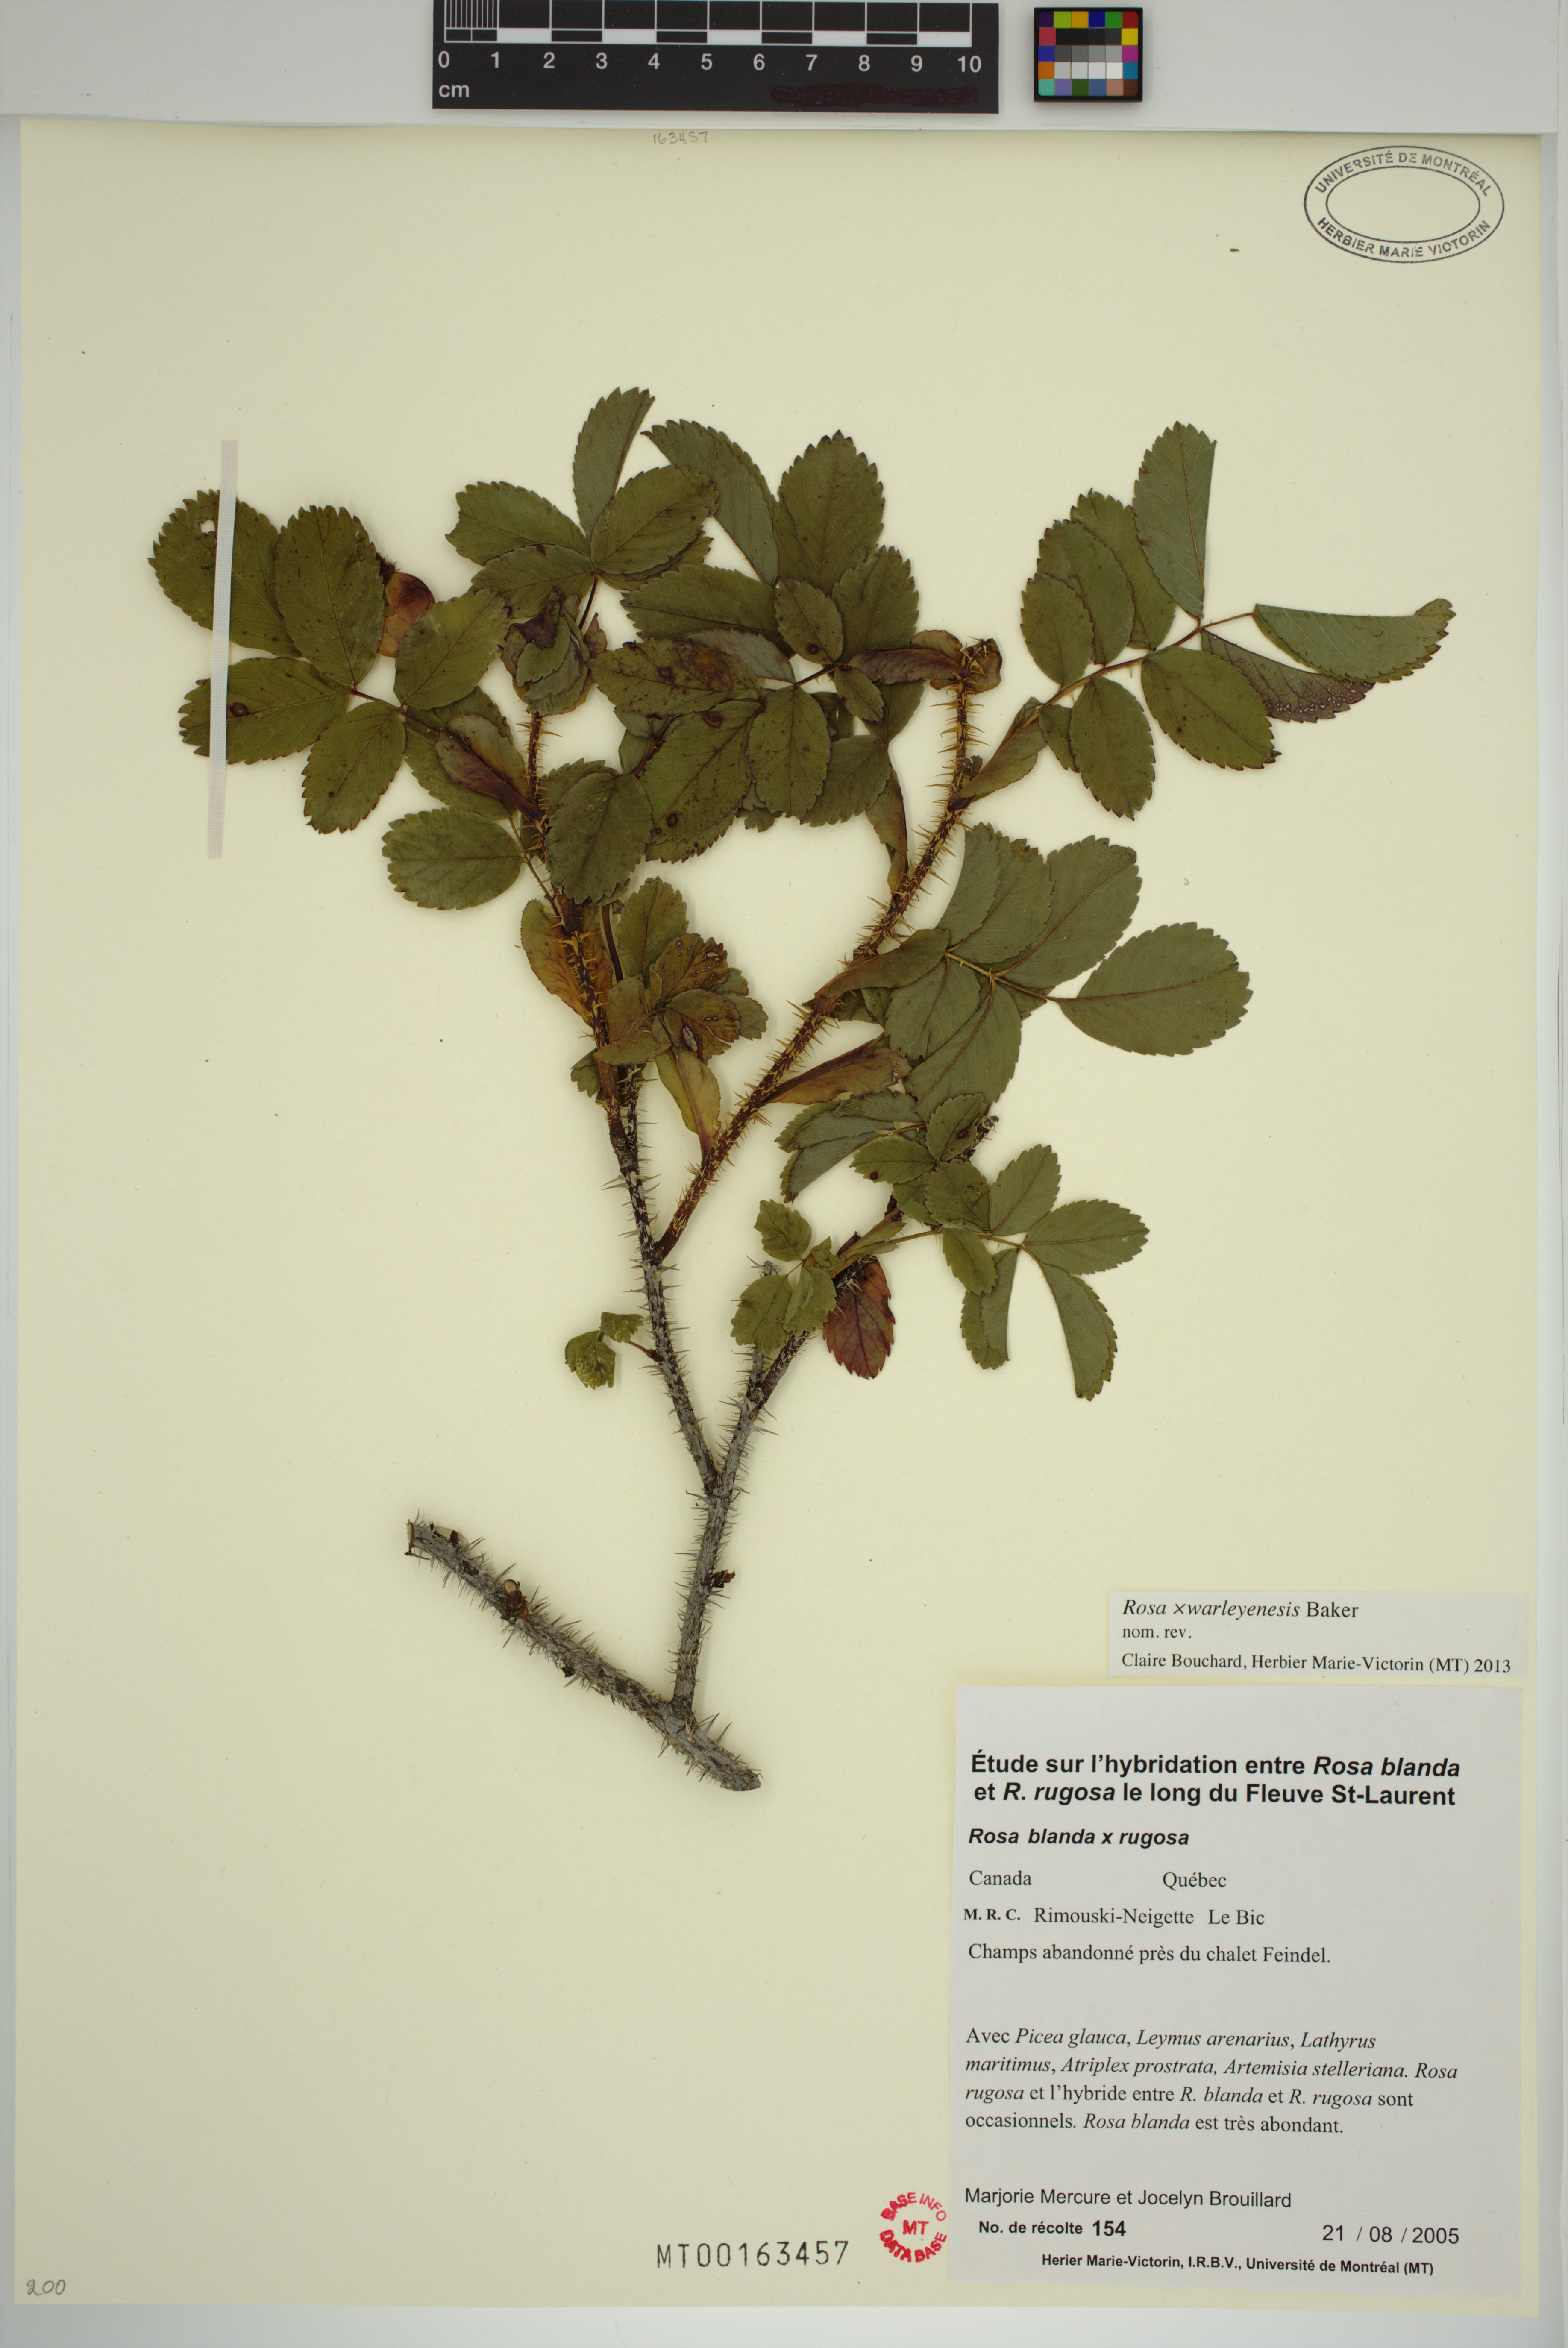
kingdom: Plantae
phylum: Tracheophyta
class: Magnoliopsida
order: Rosales
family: Rosaceae
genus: Rosa
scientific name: Rosa warleyensis
